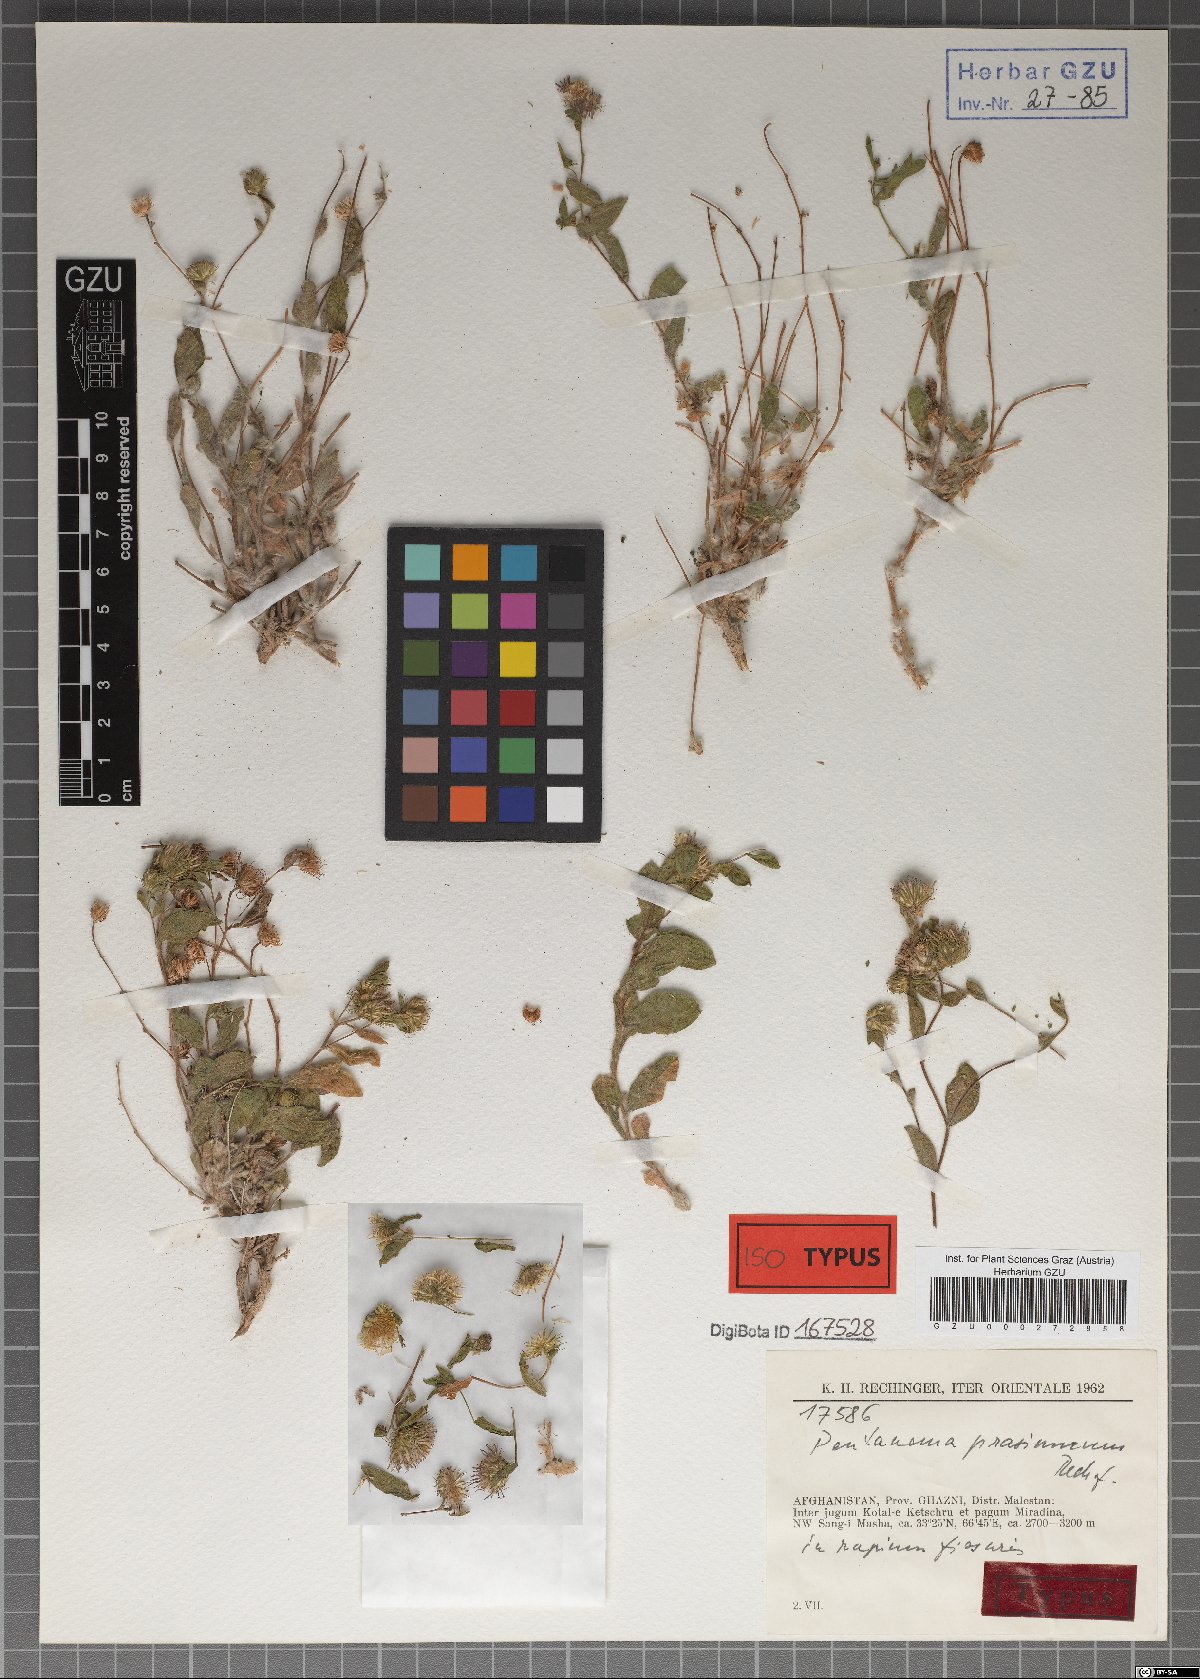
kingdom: Plantae
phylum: Tracheophyta
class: Magnoliopsida
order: Asterales
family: Asteraceae
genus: Pentanema
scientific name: Pentanema prasinurum
